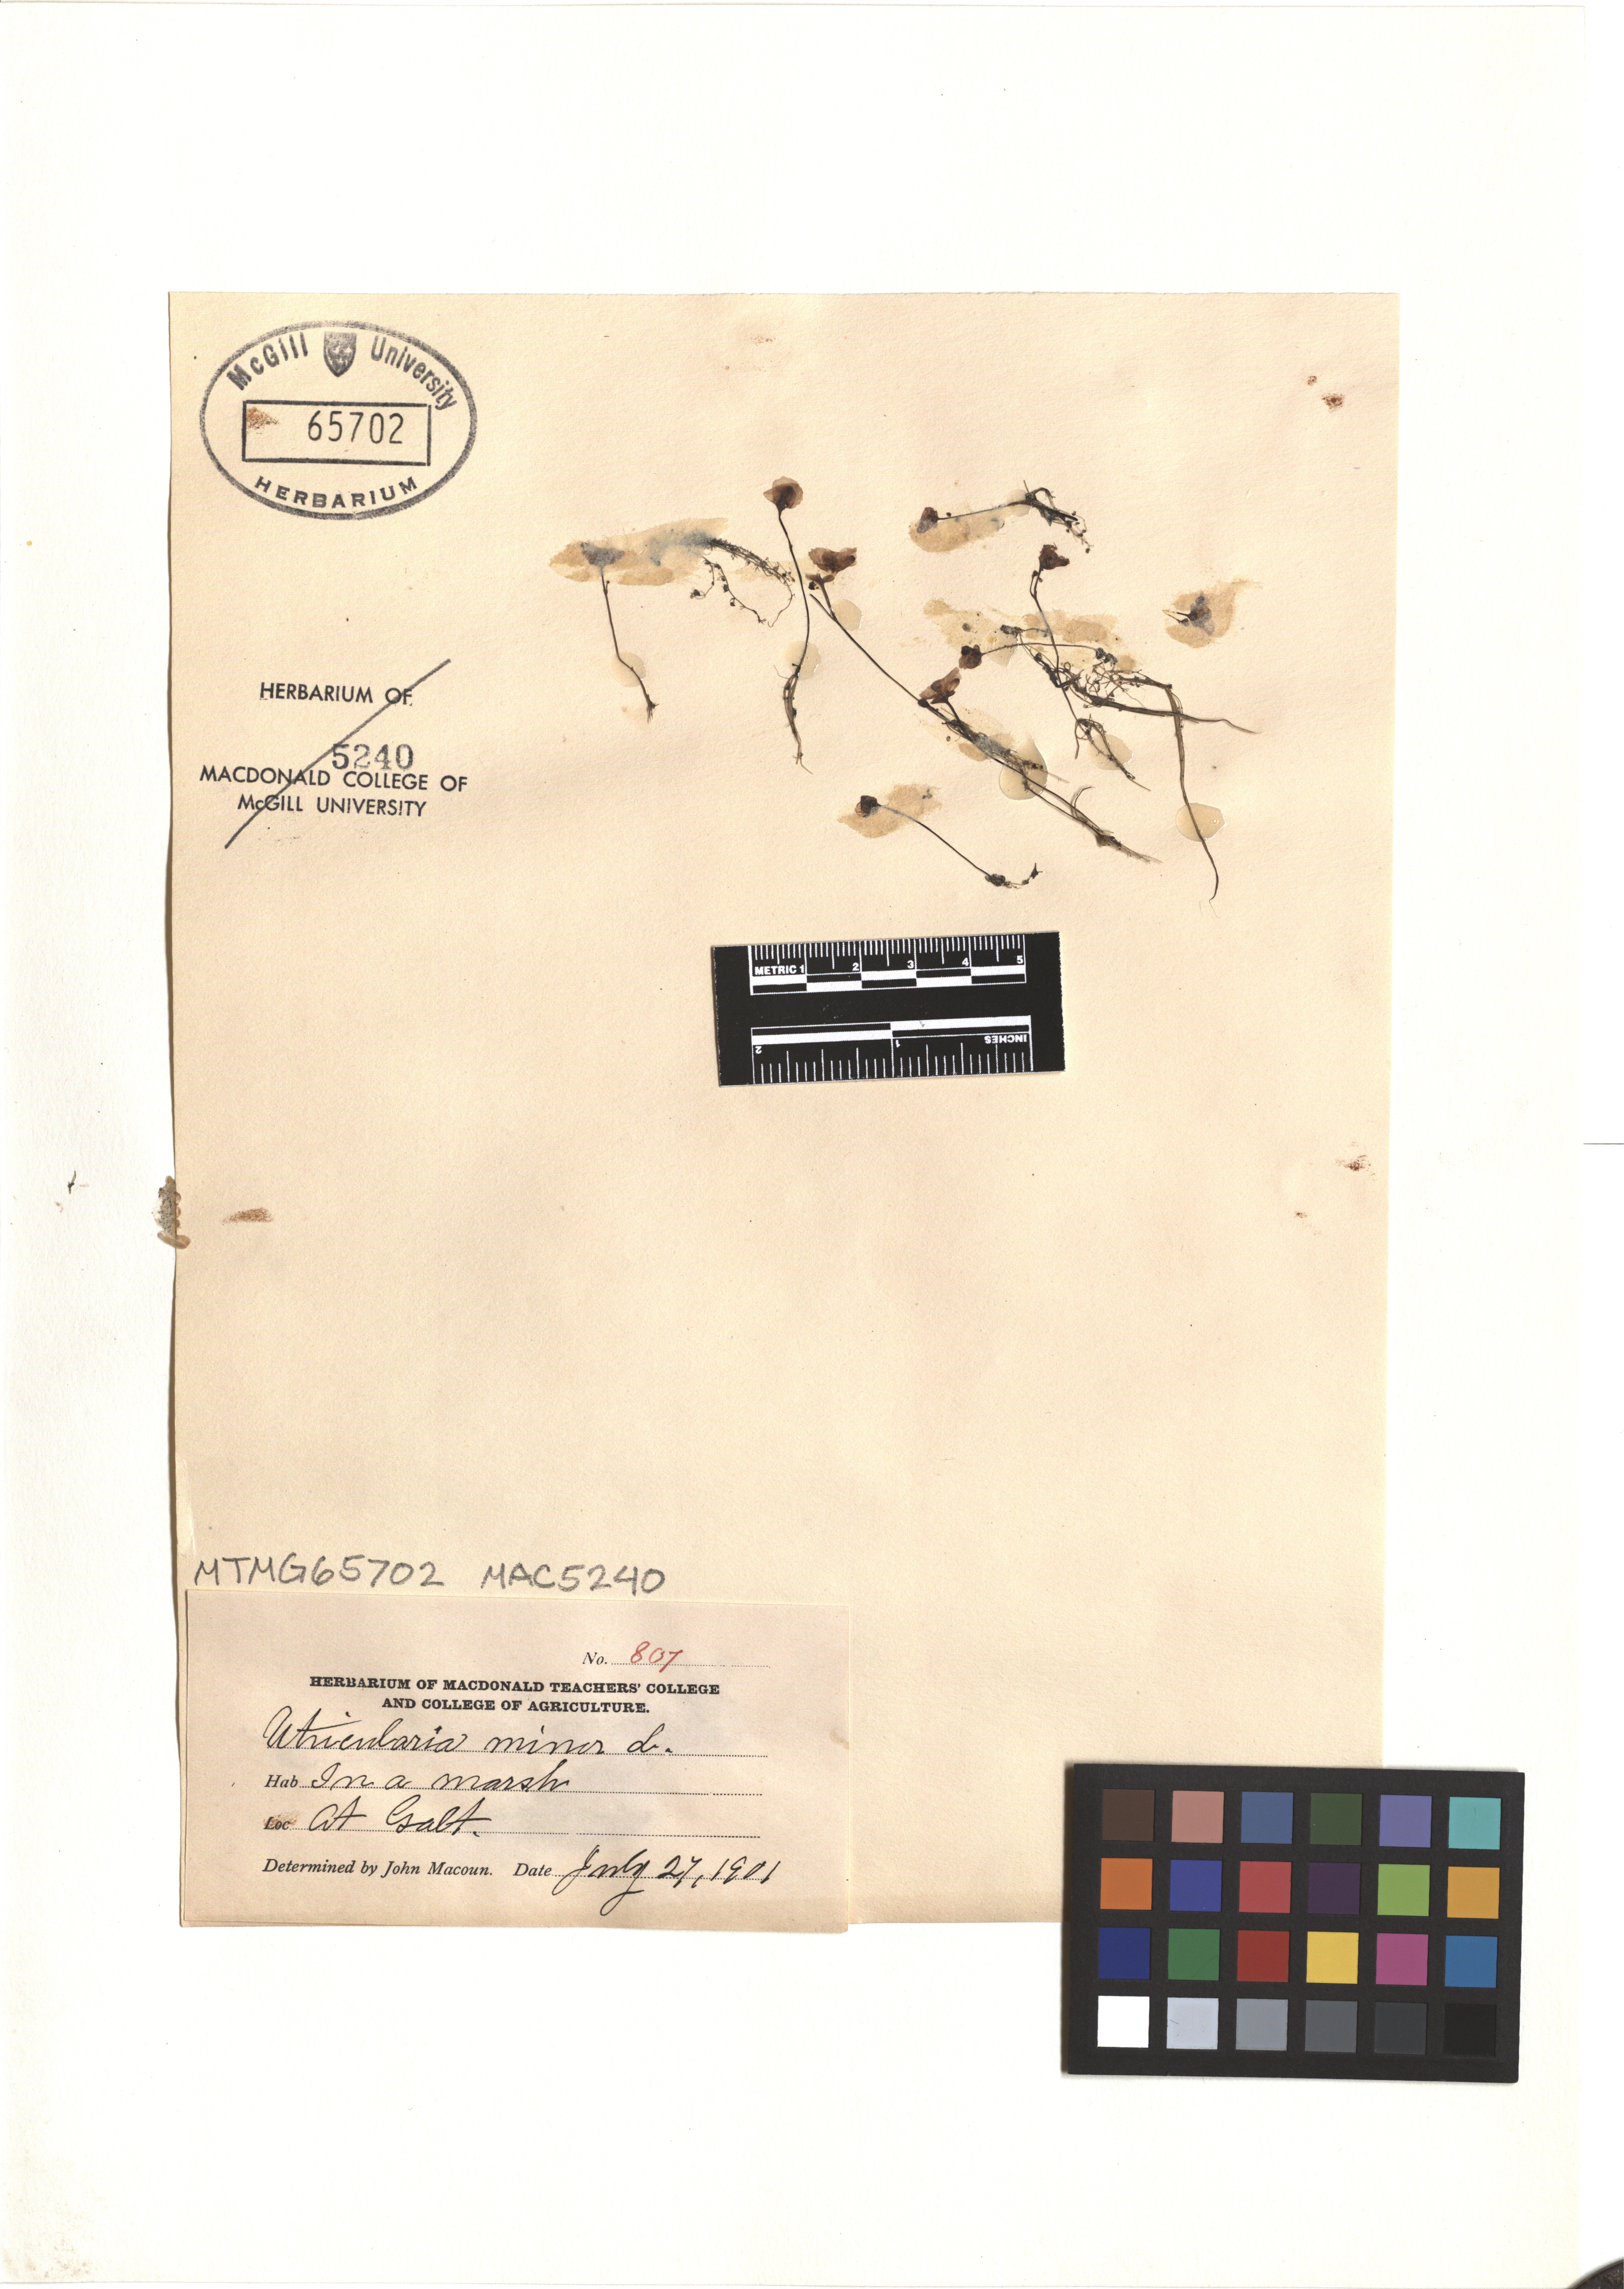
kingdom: Plantae
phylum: Tracheophyta
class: Magnoliopsida
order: Lamiales
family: Lentibulariaceae
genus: Utricularia
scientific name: Utricularia minor
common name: Lesser bladderwort
